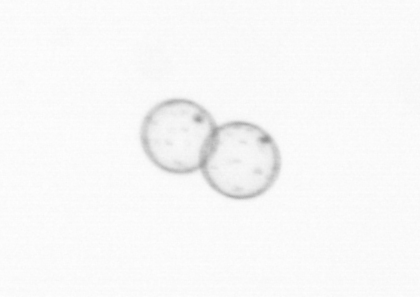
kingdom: Chromista
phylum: Myzozoa
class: Dinophyceae
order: Noctilucales
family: Noctilucaceae
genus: Noctiluca
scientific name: Noctiluca scintillans
